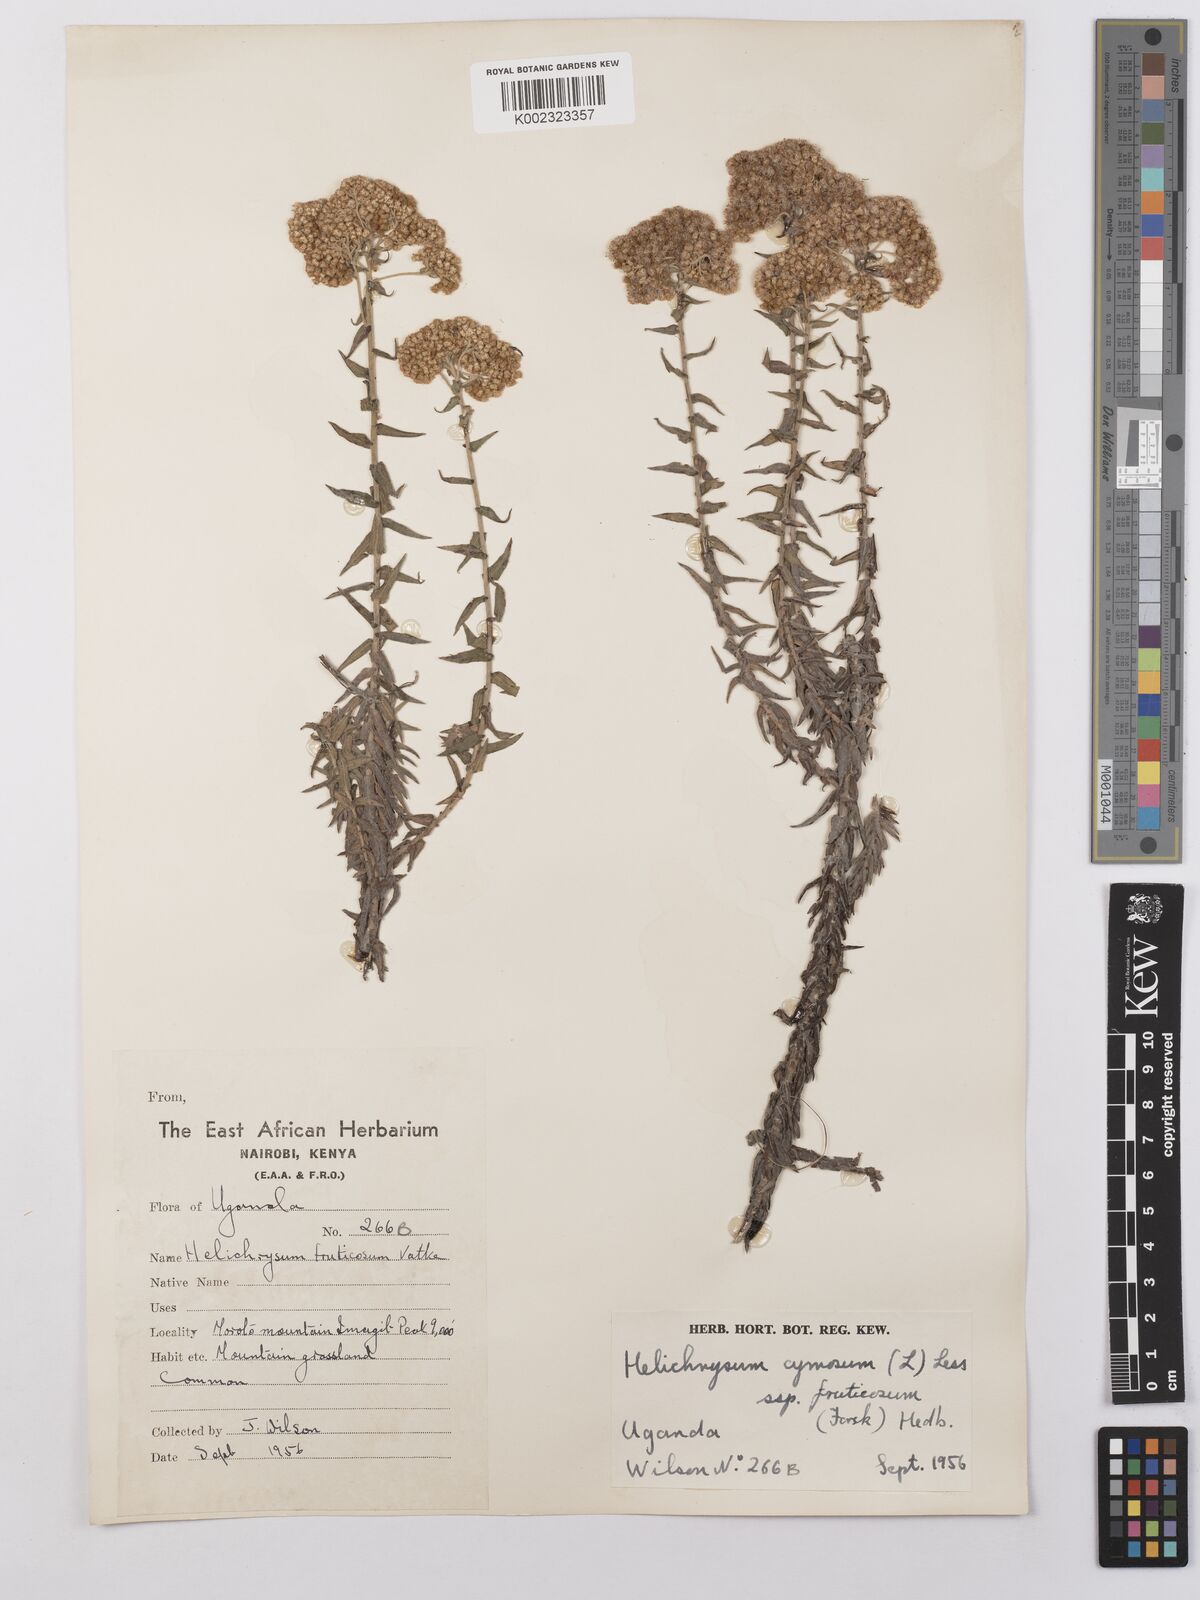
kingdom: Plantae
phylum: Tracheophyta
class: Magnoliopsida
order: Asterales
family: Asteraceae
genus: Helichrysum
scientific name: Helichrysum forskahlii
